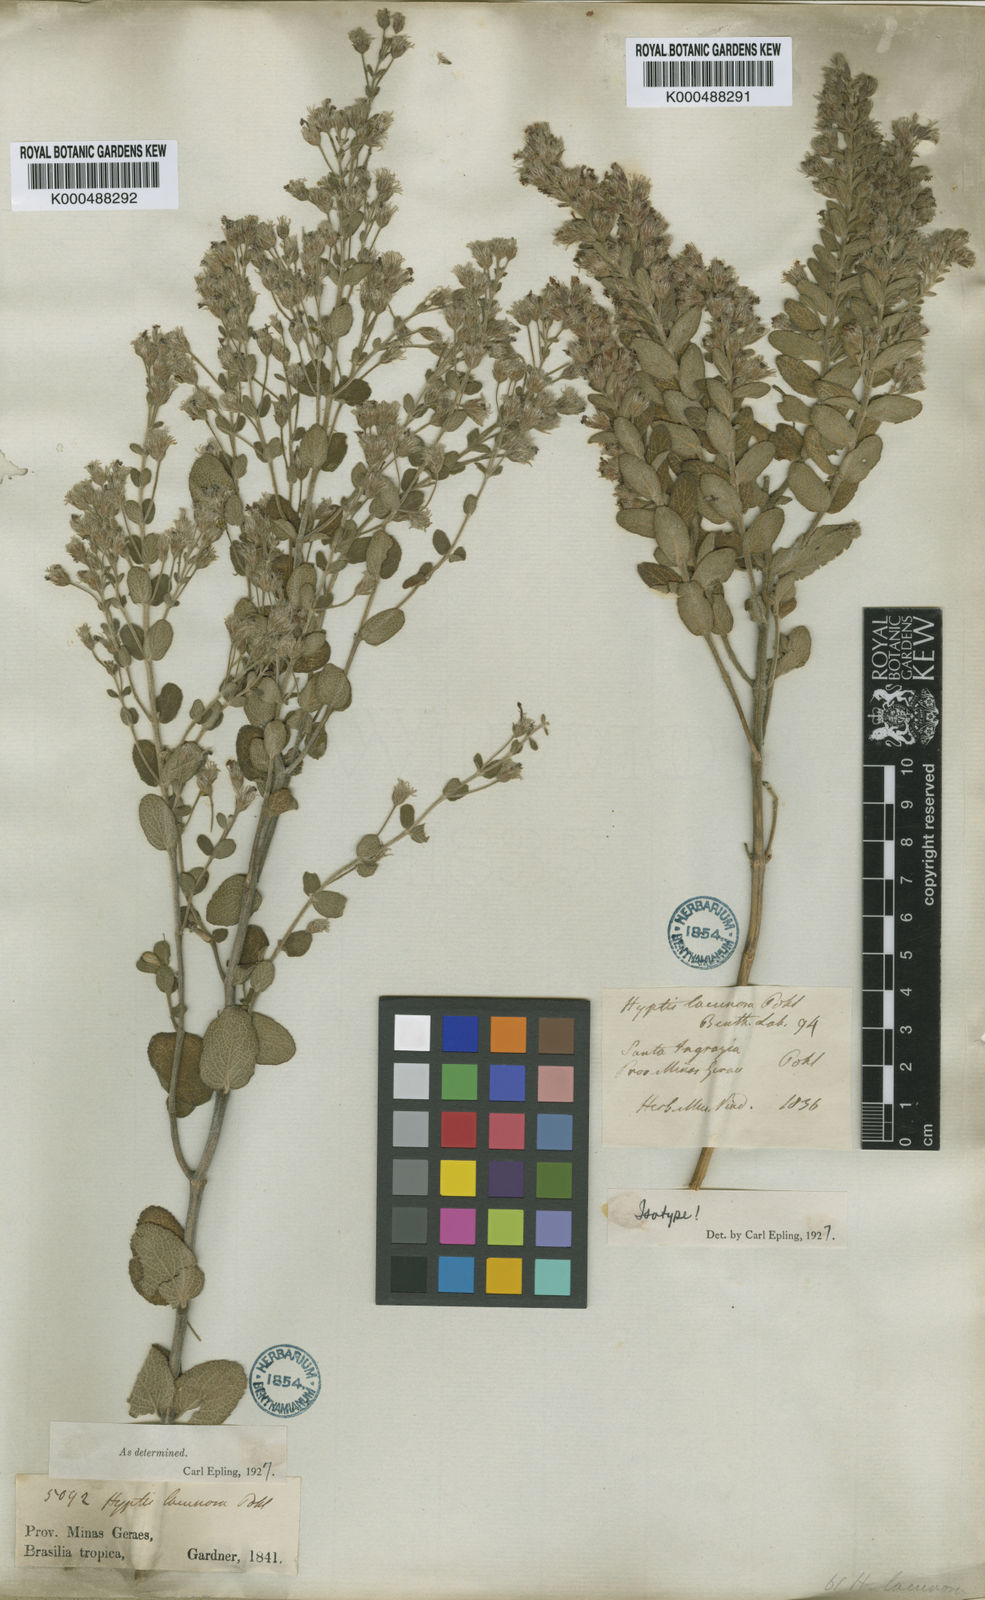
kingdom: Plantae
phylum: Tracheophyta
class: Magnoliopsida
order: Lamiales
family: Lamiaceae
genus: Oocephalus
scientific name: Oocephalus lacunosus
